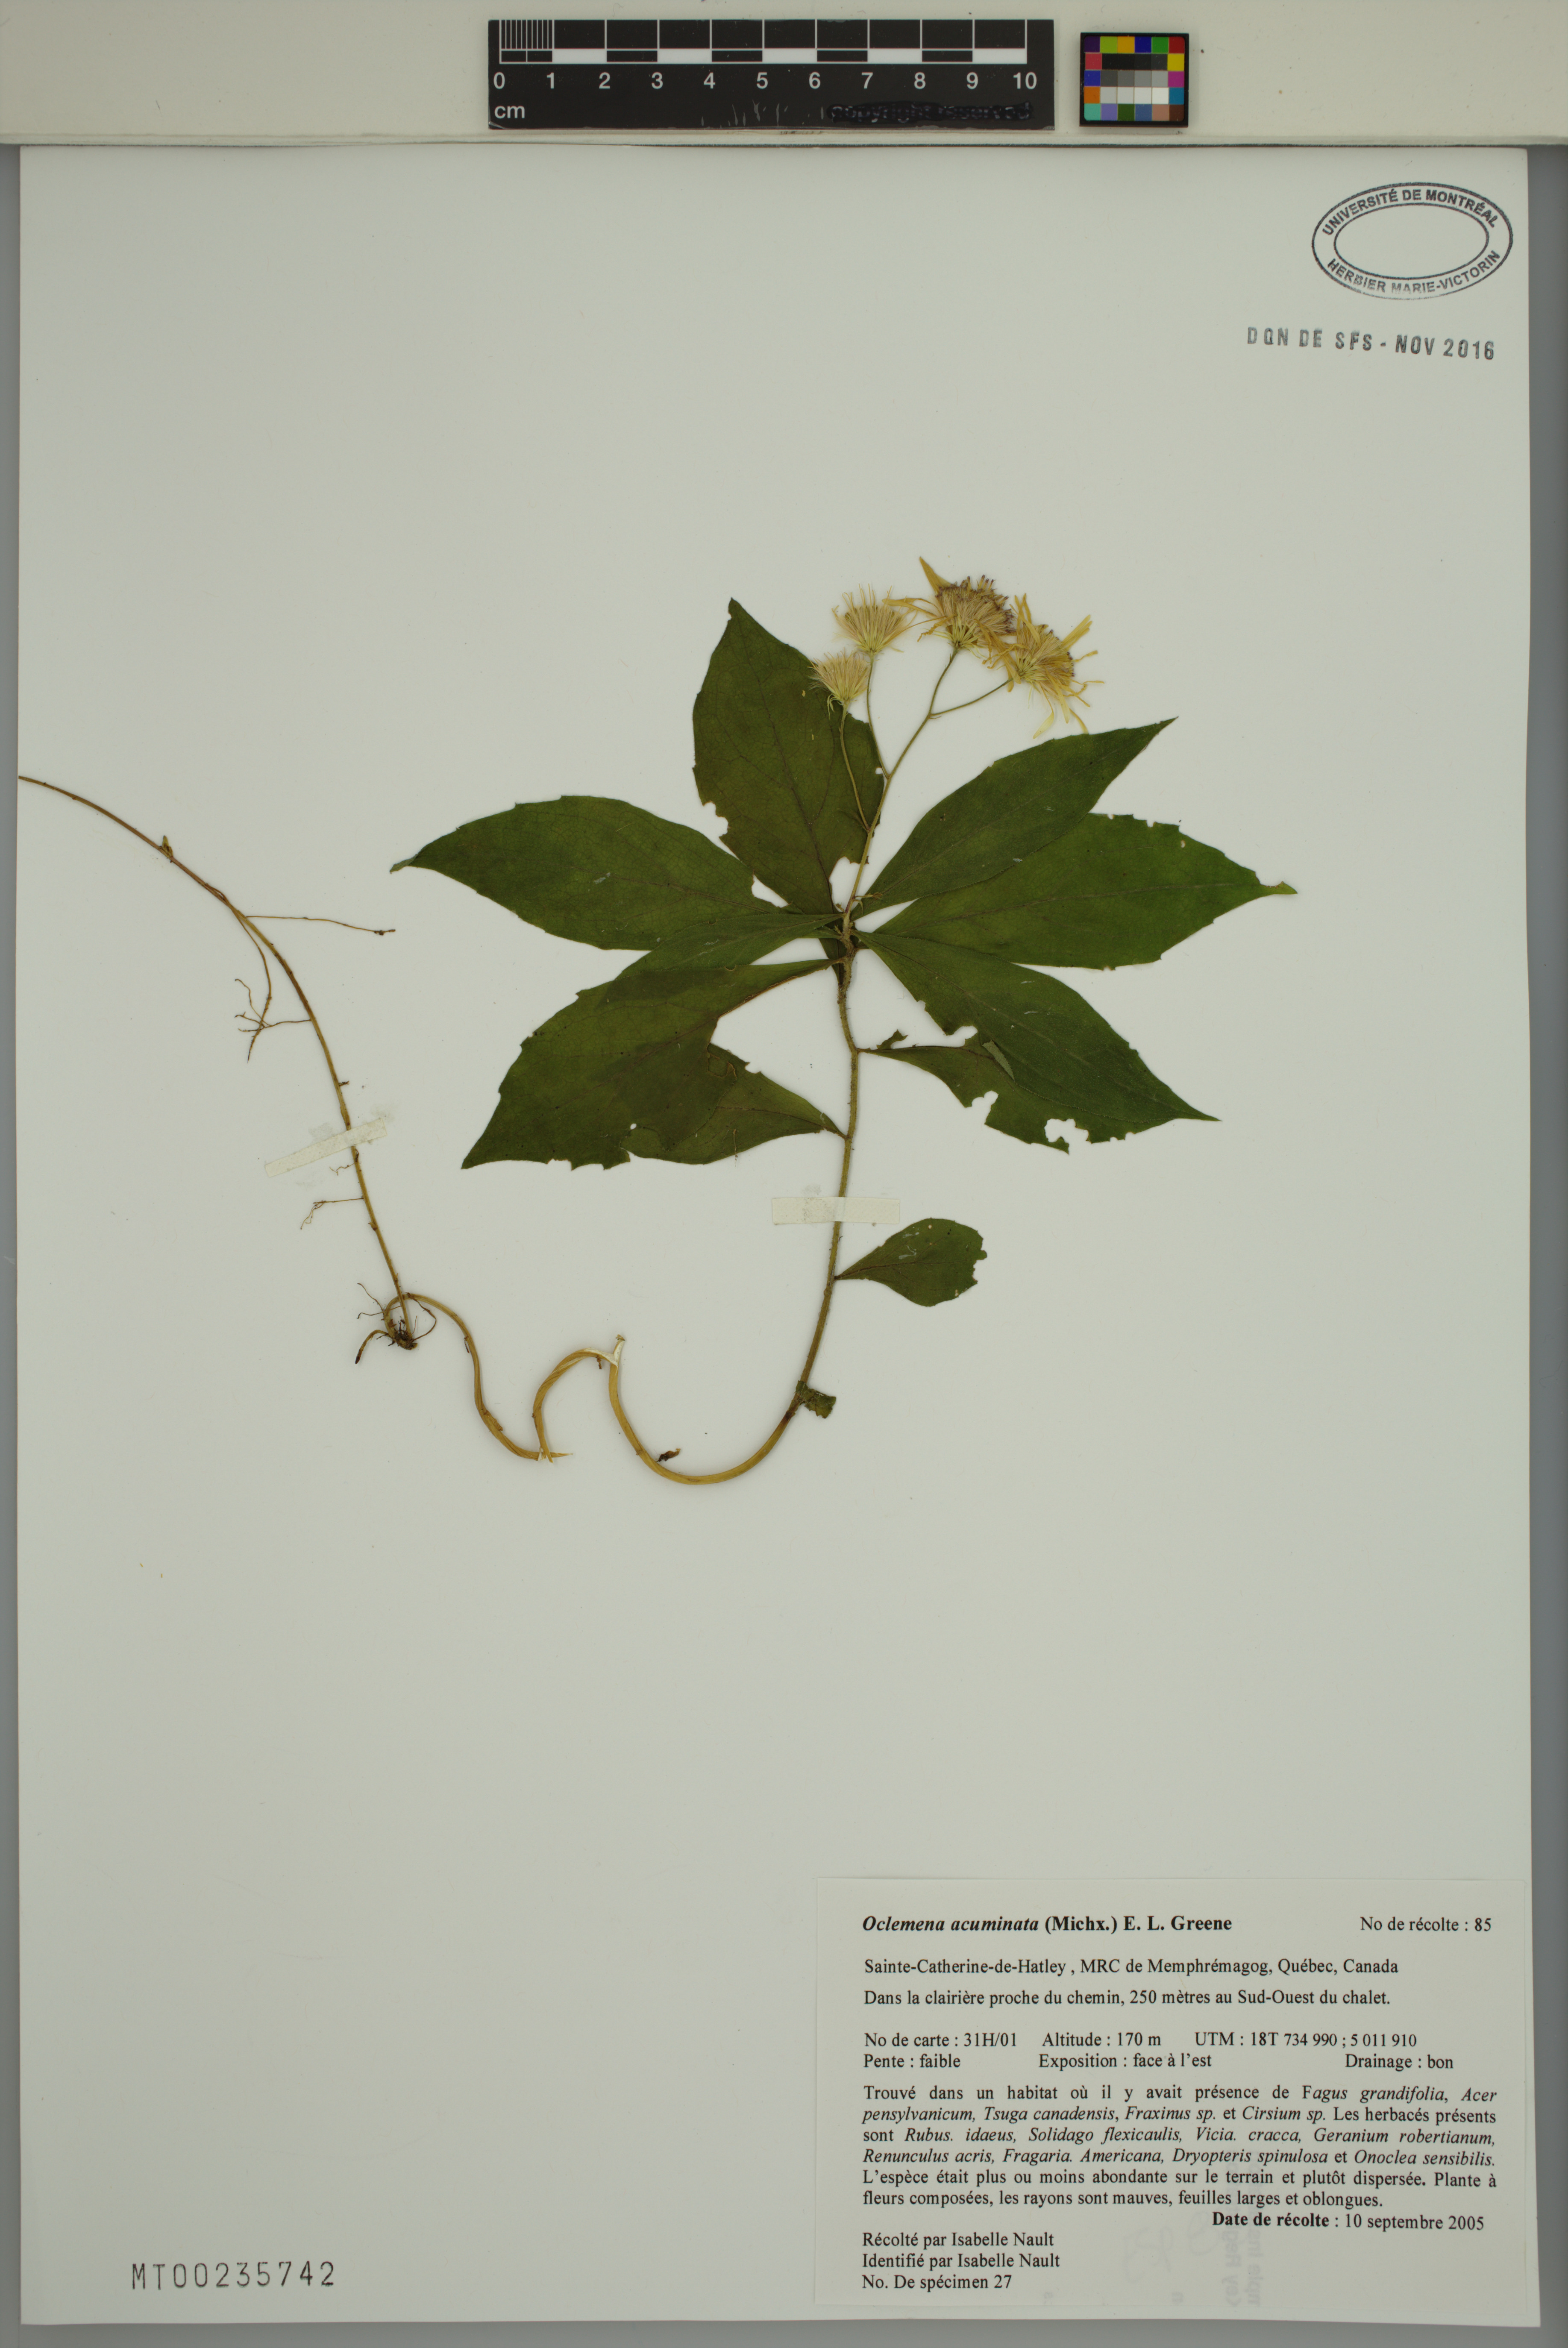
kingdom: Plantae
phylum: Tracheophyta
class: Magnoliopsida
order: Asterales
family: Asteraceae
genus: Oclemena
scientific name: Oclemena acuminata
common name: Mountain aster
